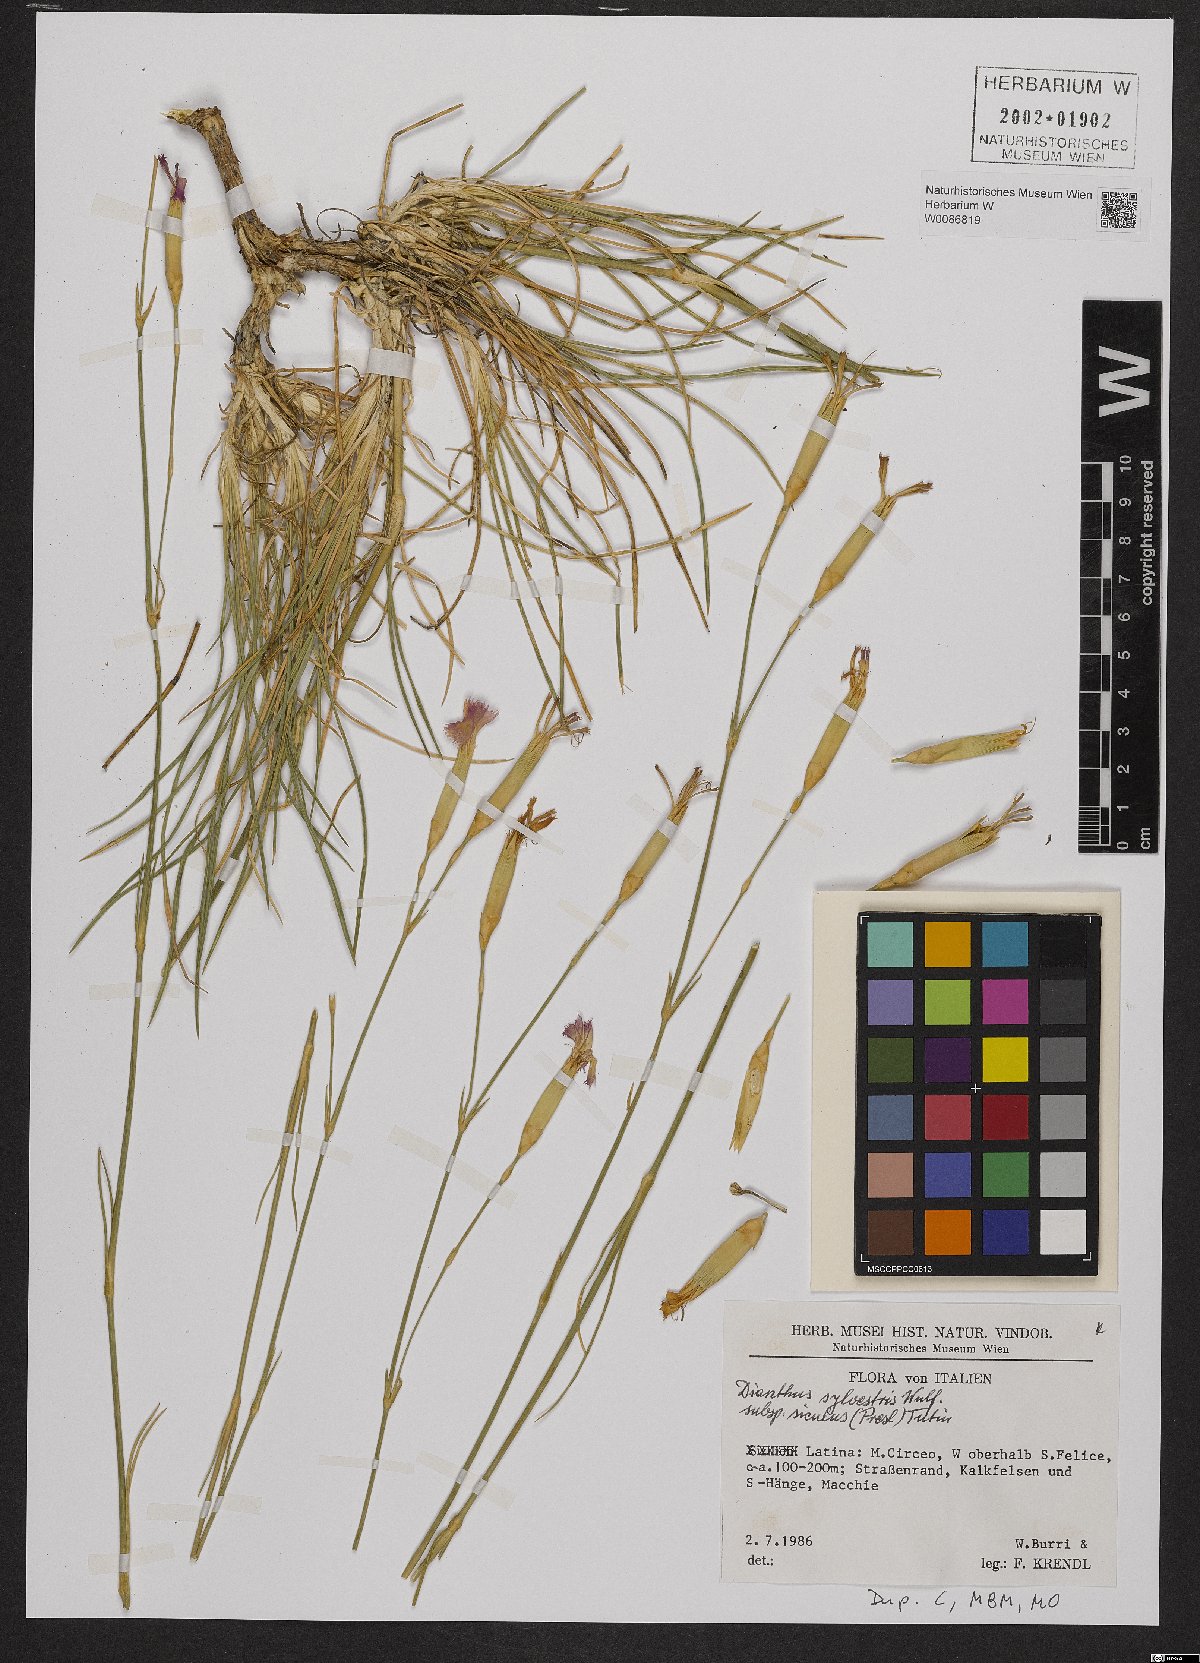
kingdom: Plantae
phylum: Tracheophyta
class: Magnoliopsida
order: Caryophyllales
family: Caryophyllaceae
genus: Dianthus
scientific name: Dianthus siculus
